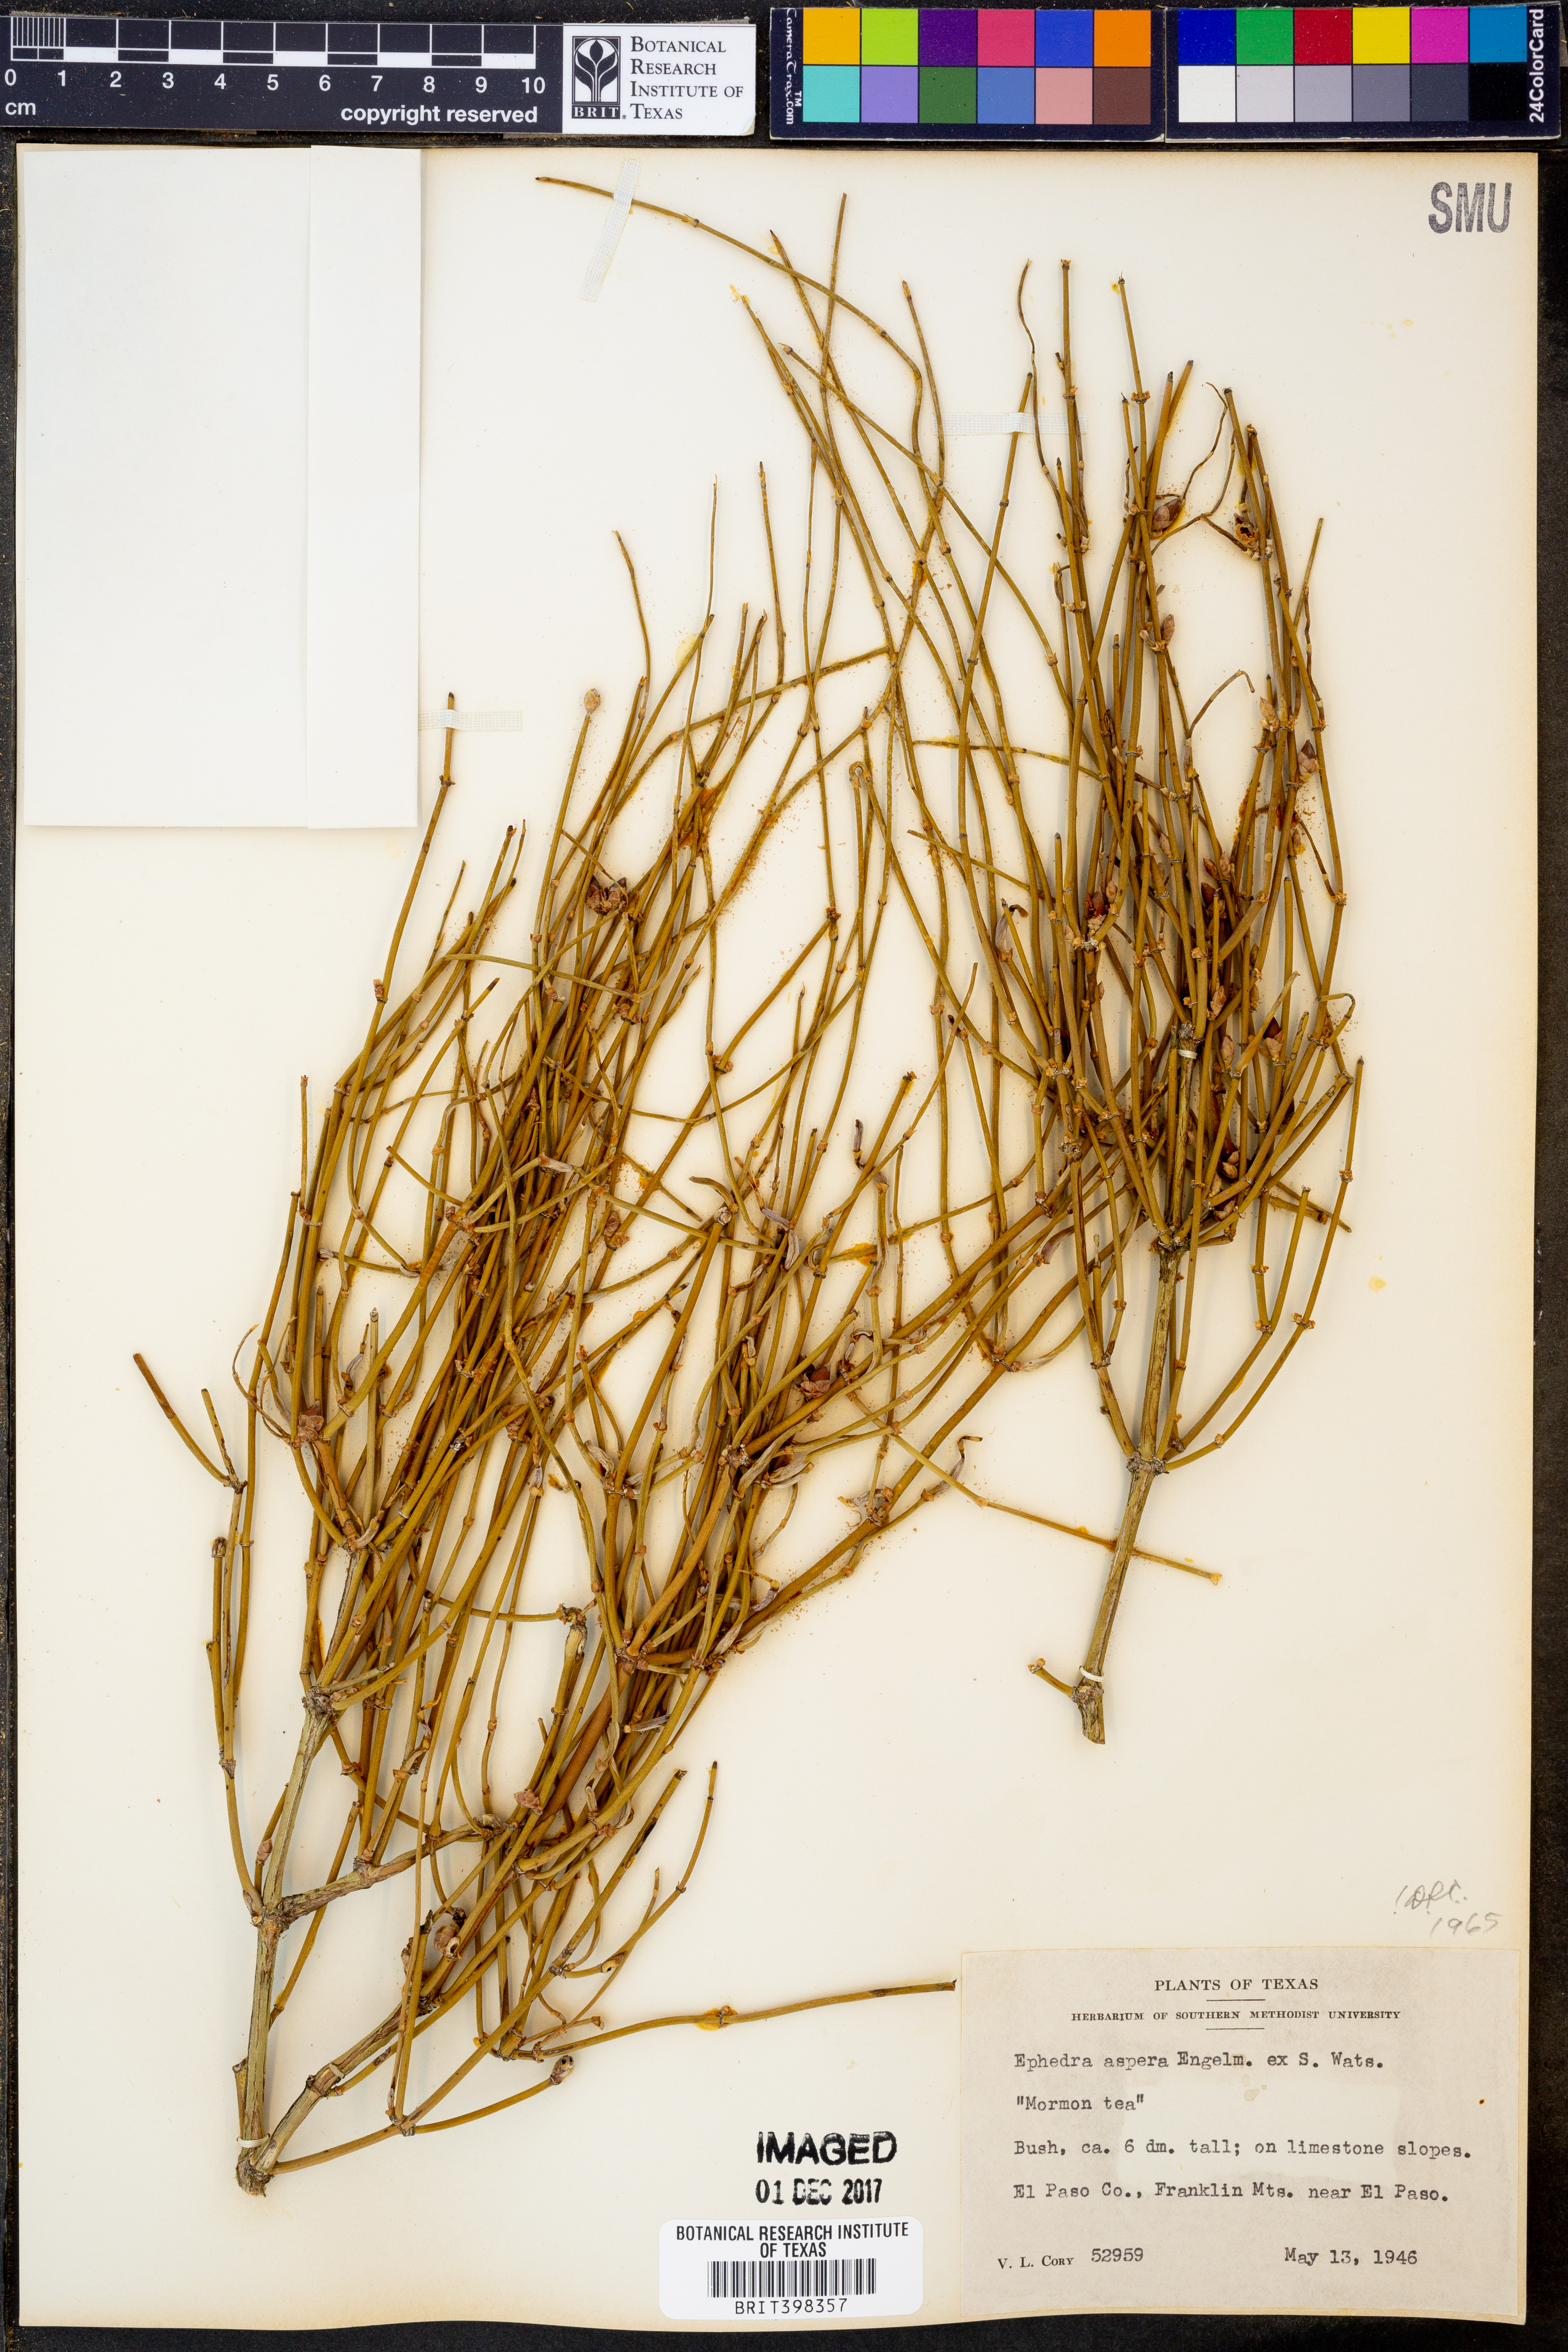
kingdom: Plantae
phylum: Tracheophyta
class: Gnetopsida
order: Ephedrales
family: Ephedraceae
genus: Ephedra
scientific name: Ephedra aspera
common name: Boundary ephedra
